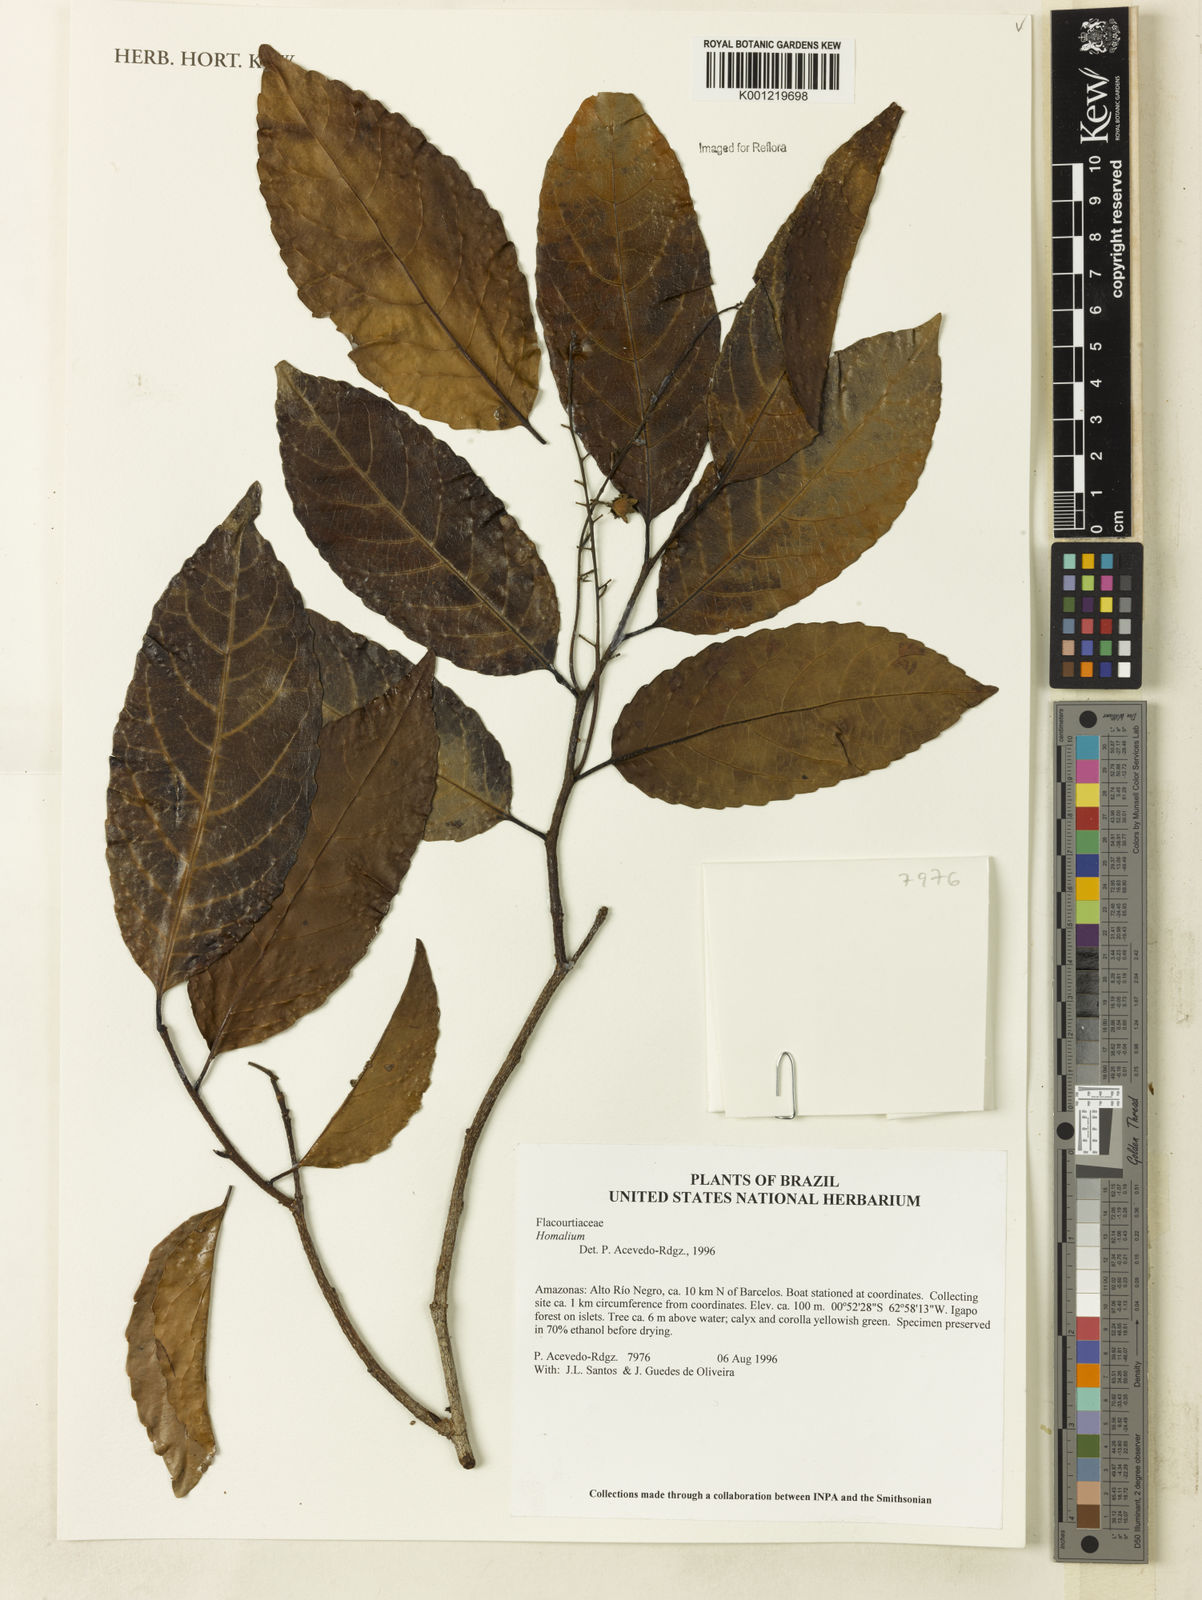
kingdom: Plantae
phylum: Tracheophyta
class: Magnoliopsida
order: Malpighiales
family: Salicaceae
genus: Homalium
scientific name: Homalium
